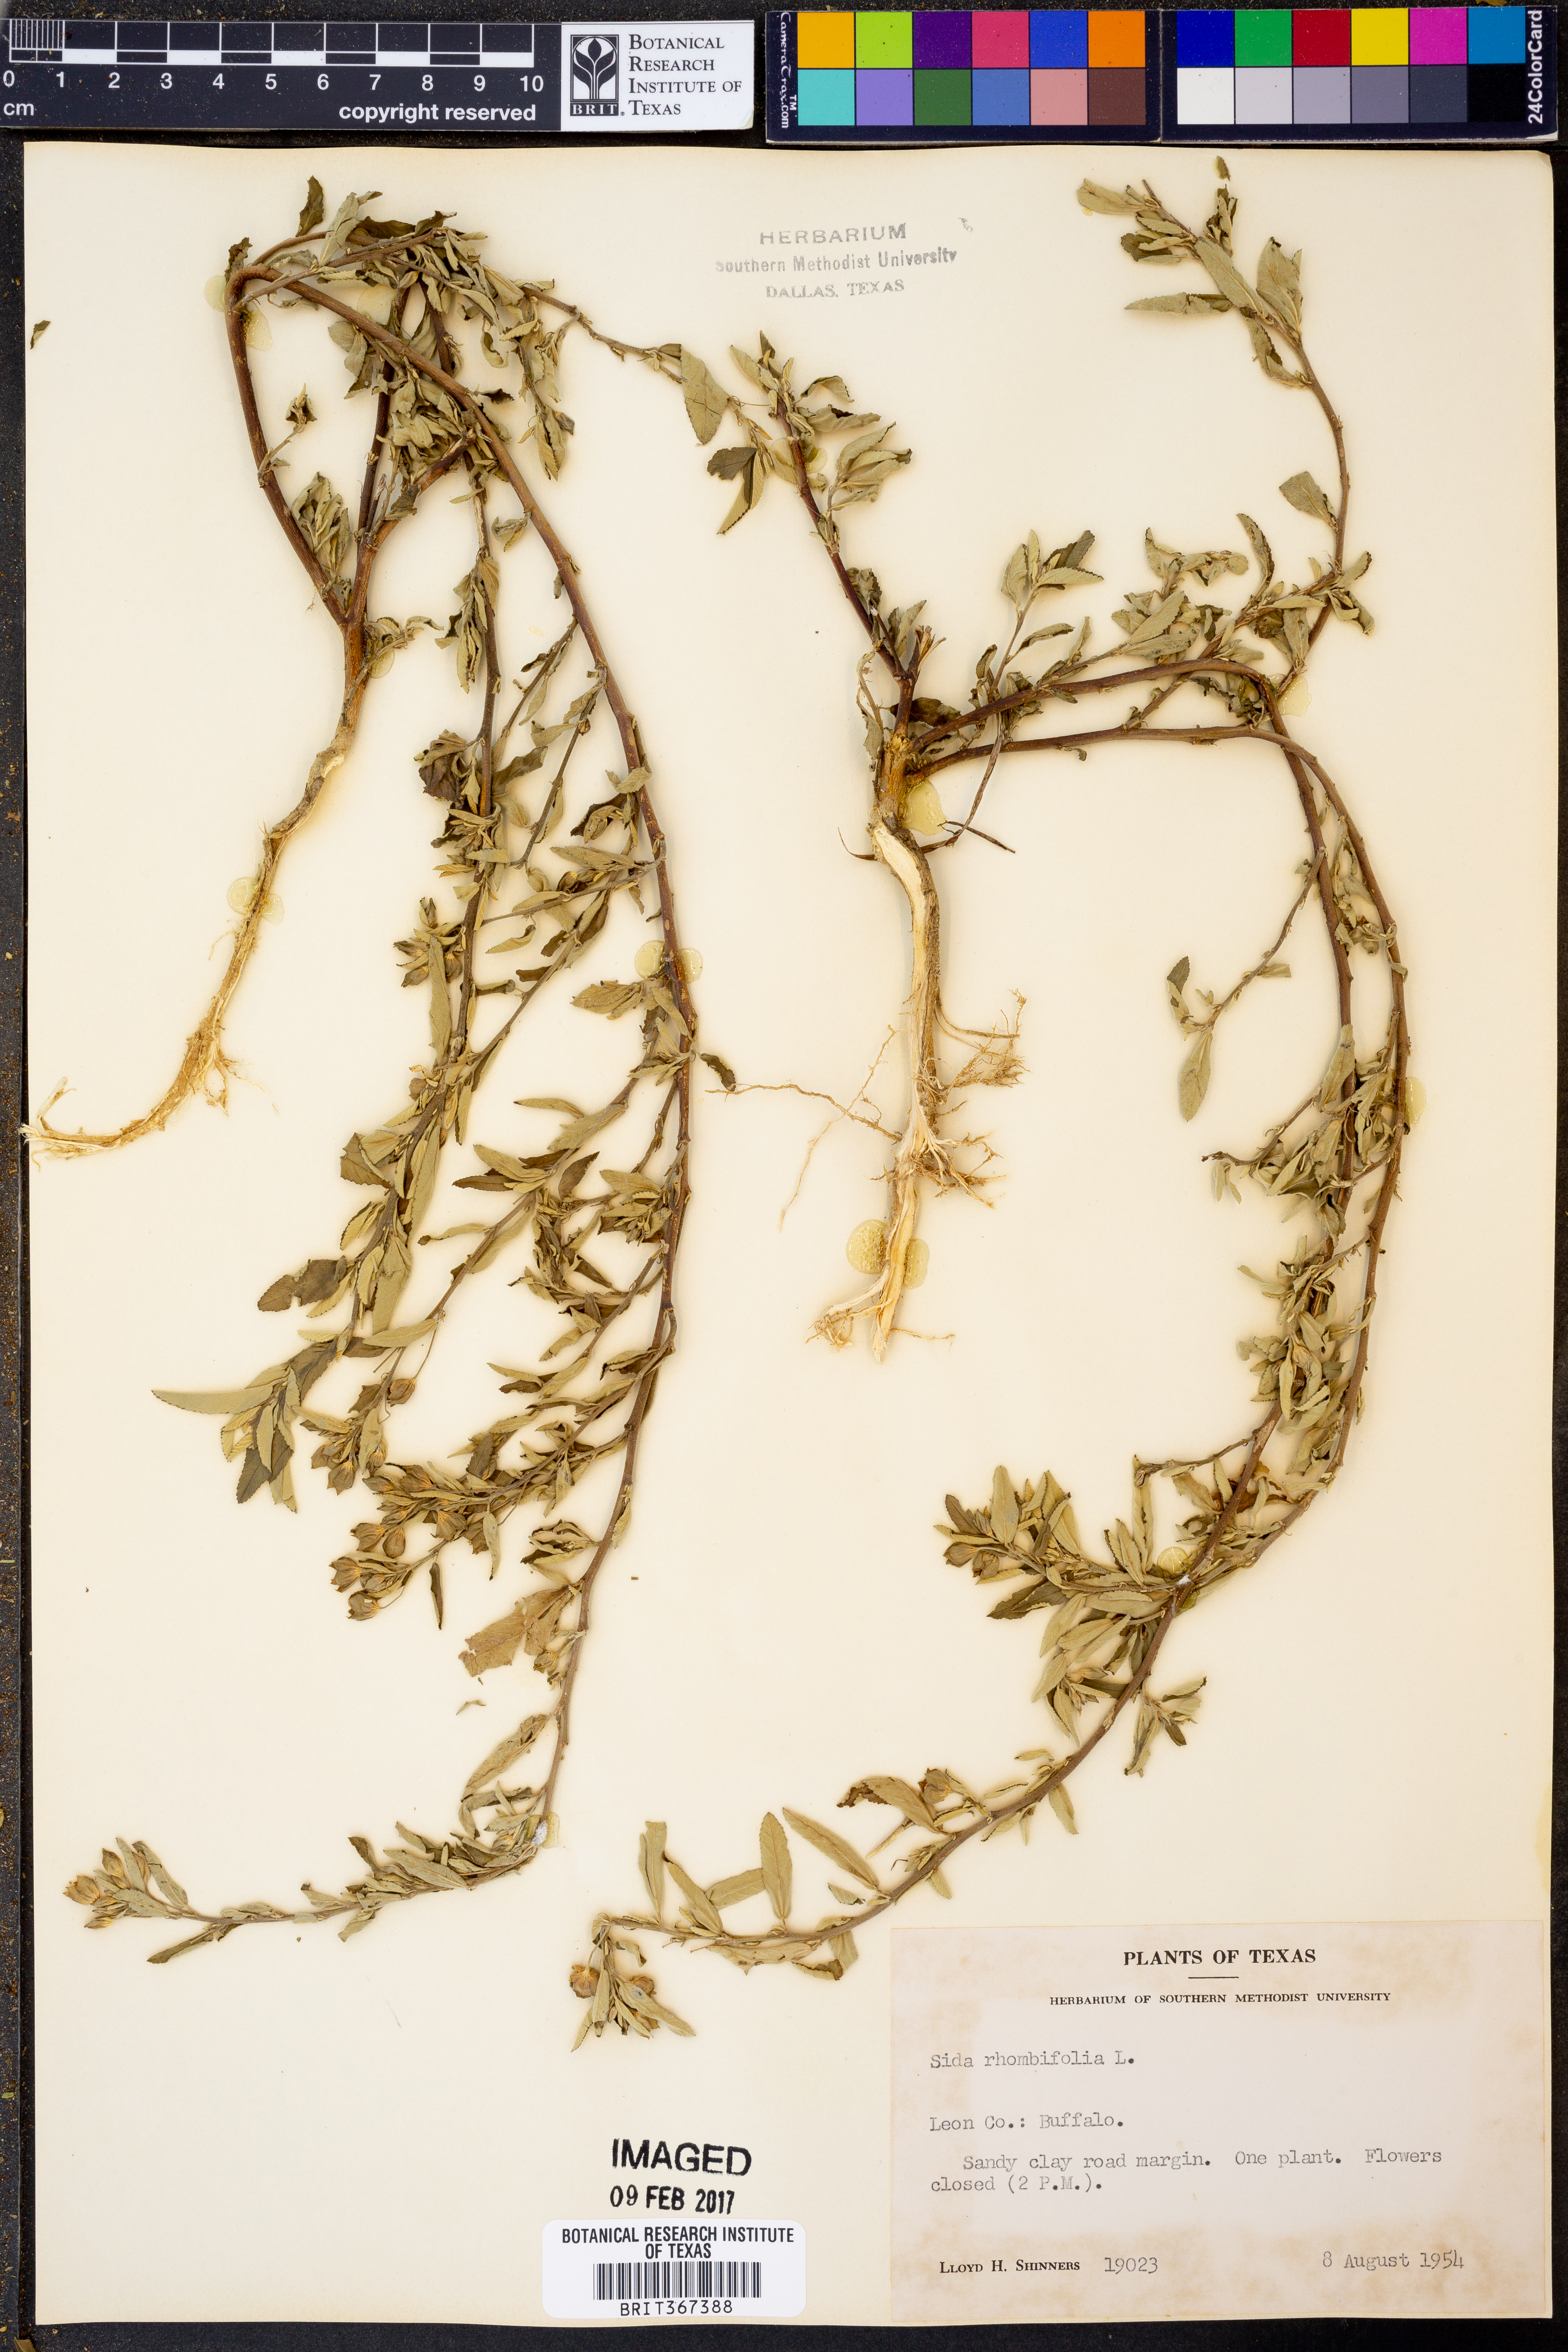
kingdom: Plantae
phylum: Tracheophyta
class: Magnoliopsida
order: Malvales
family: Malvaceae
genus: Sida
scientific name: Sida rhombifolia
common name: Queensland-hemp
